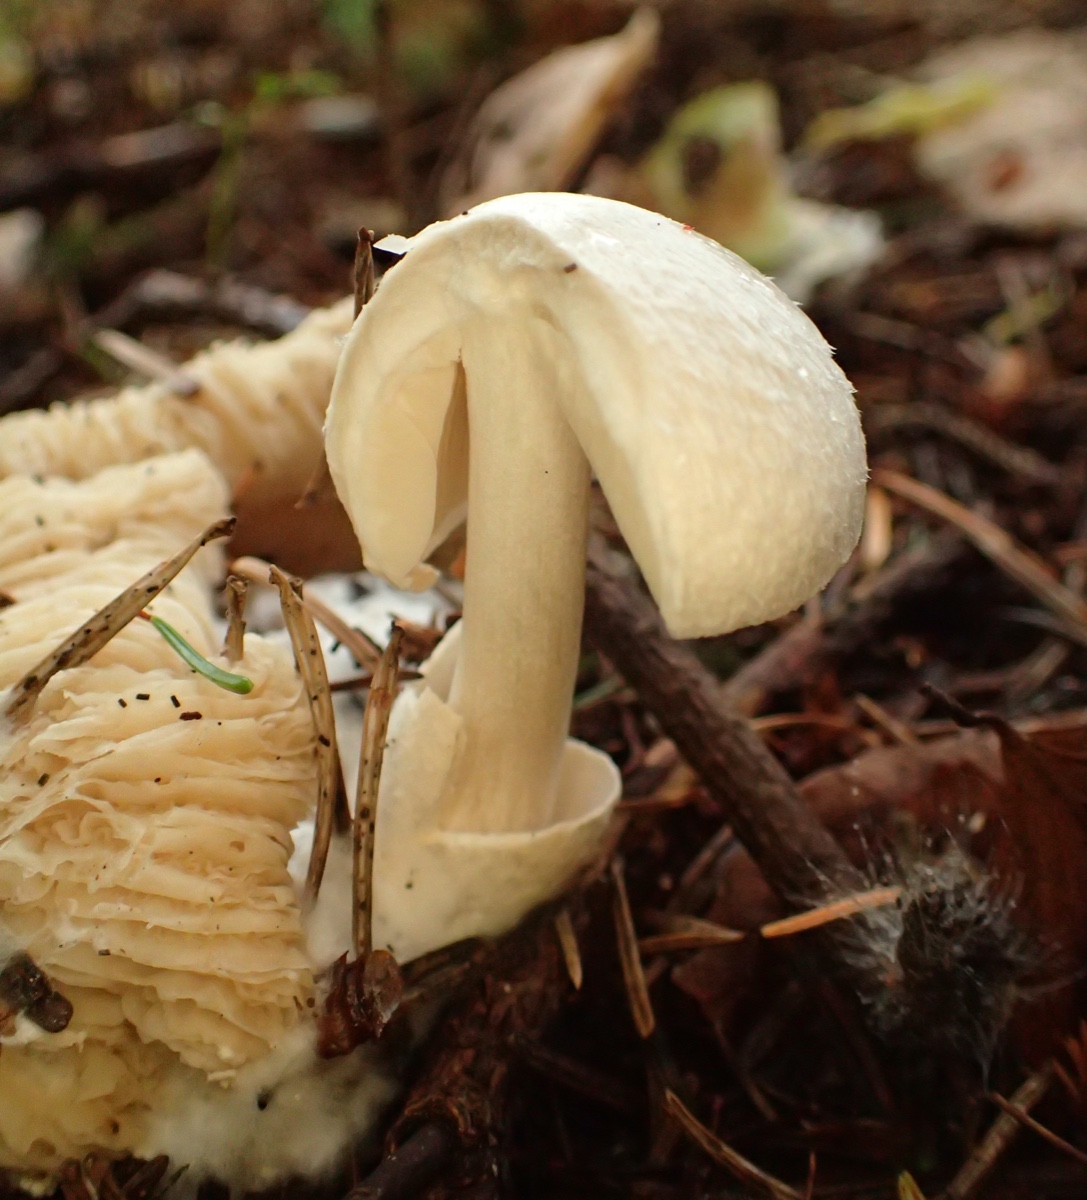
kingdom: Fungi
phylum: Basidiomycota
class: Agaricomycetes
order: Agaricales
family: Pluteaceae
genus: Volvariella
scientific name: Volvariella surrecta
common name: snyltende posesvamp
